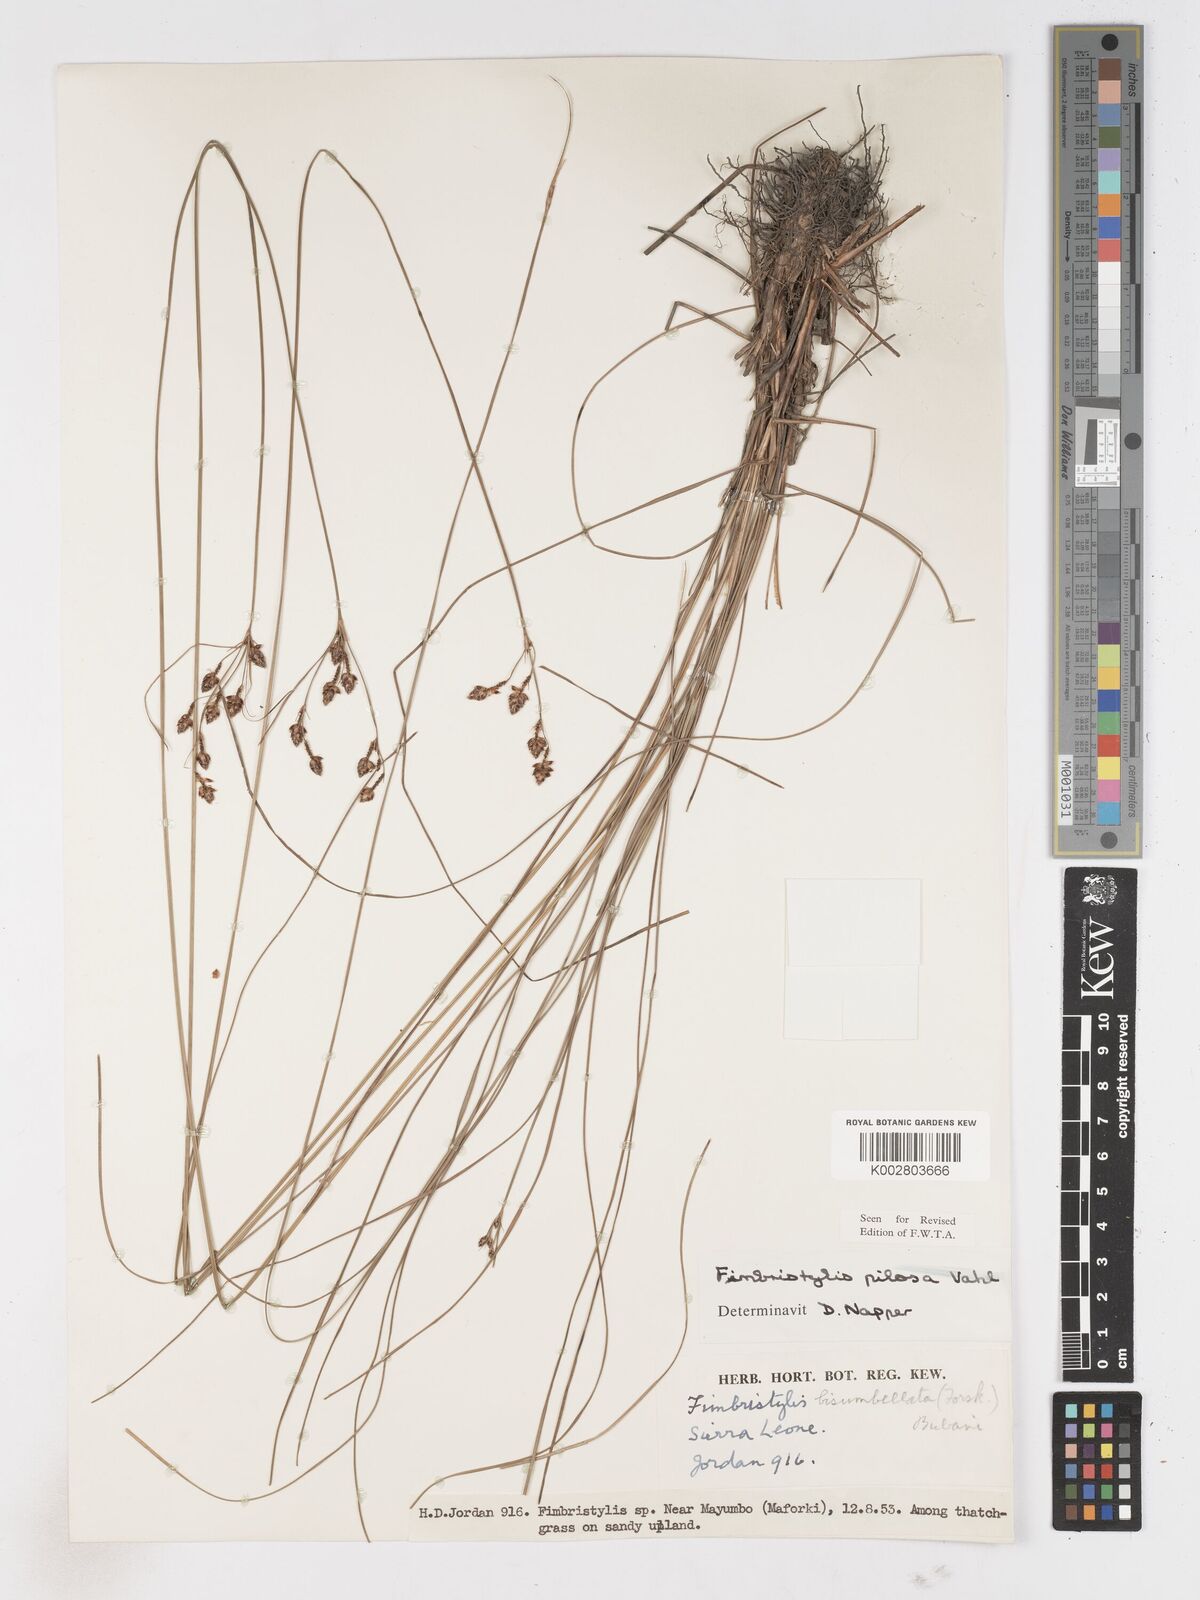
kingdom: Plantae
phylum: Tracheophyta
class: Liliopsida
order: Poales
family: Cyperaceae
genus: Fimbristylis
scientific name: Fimbristylis pilosa
